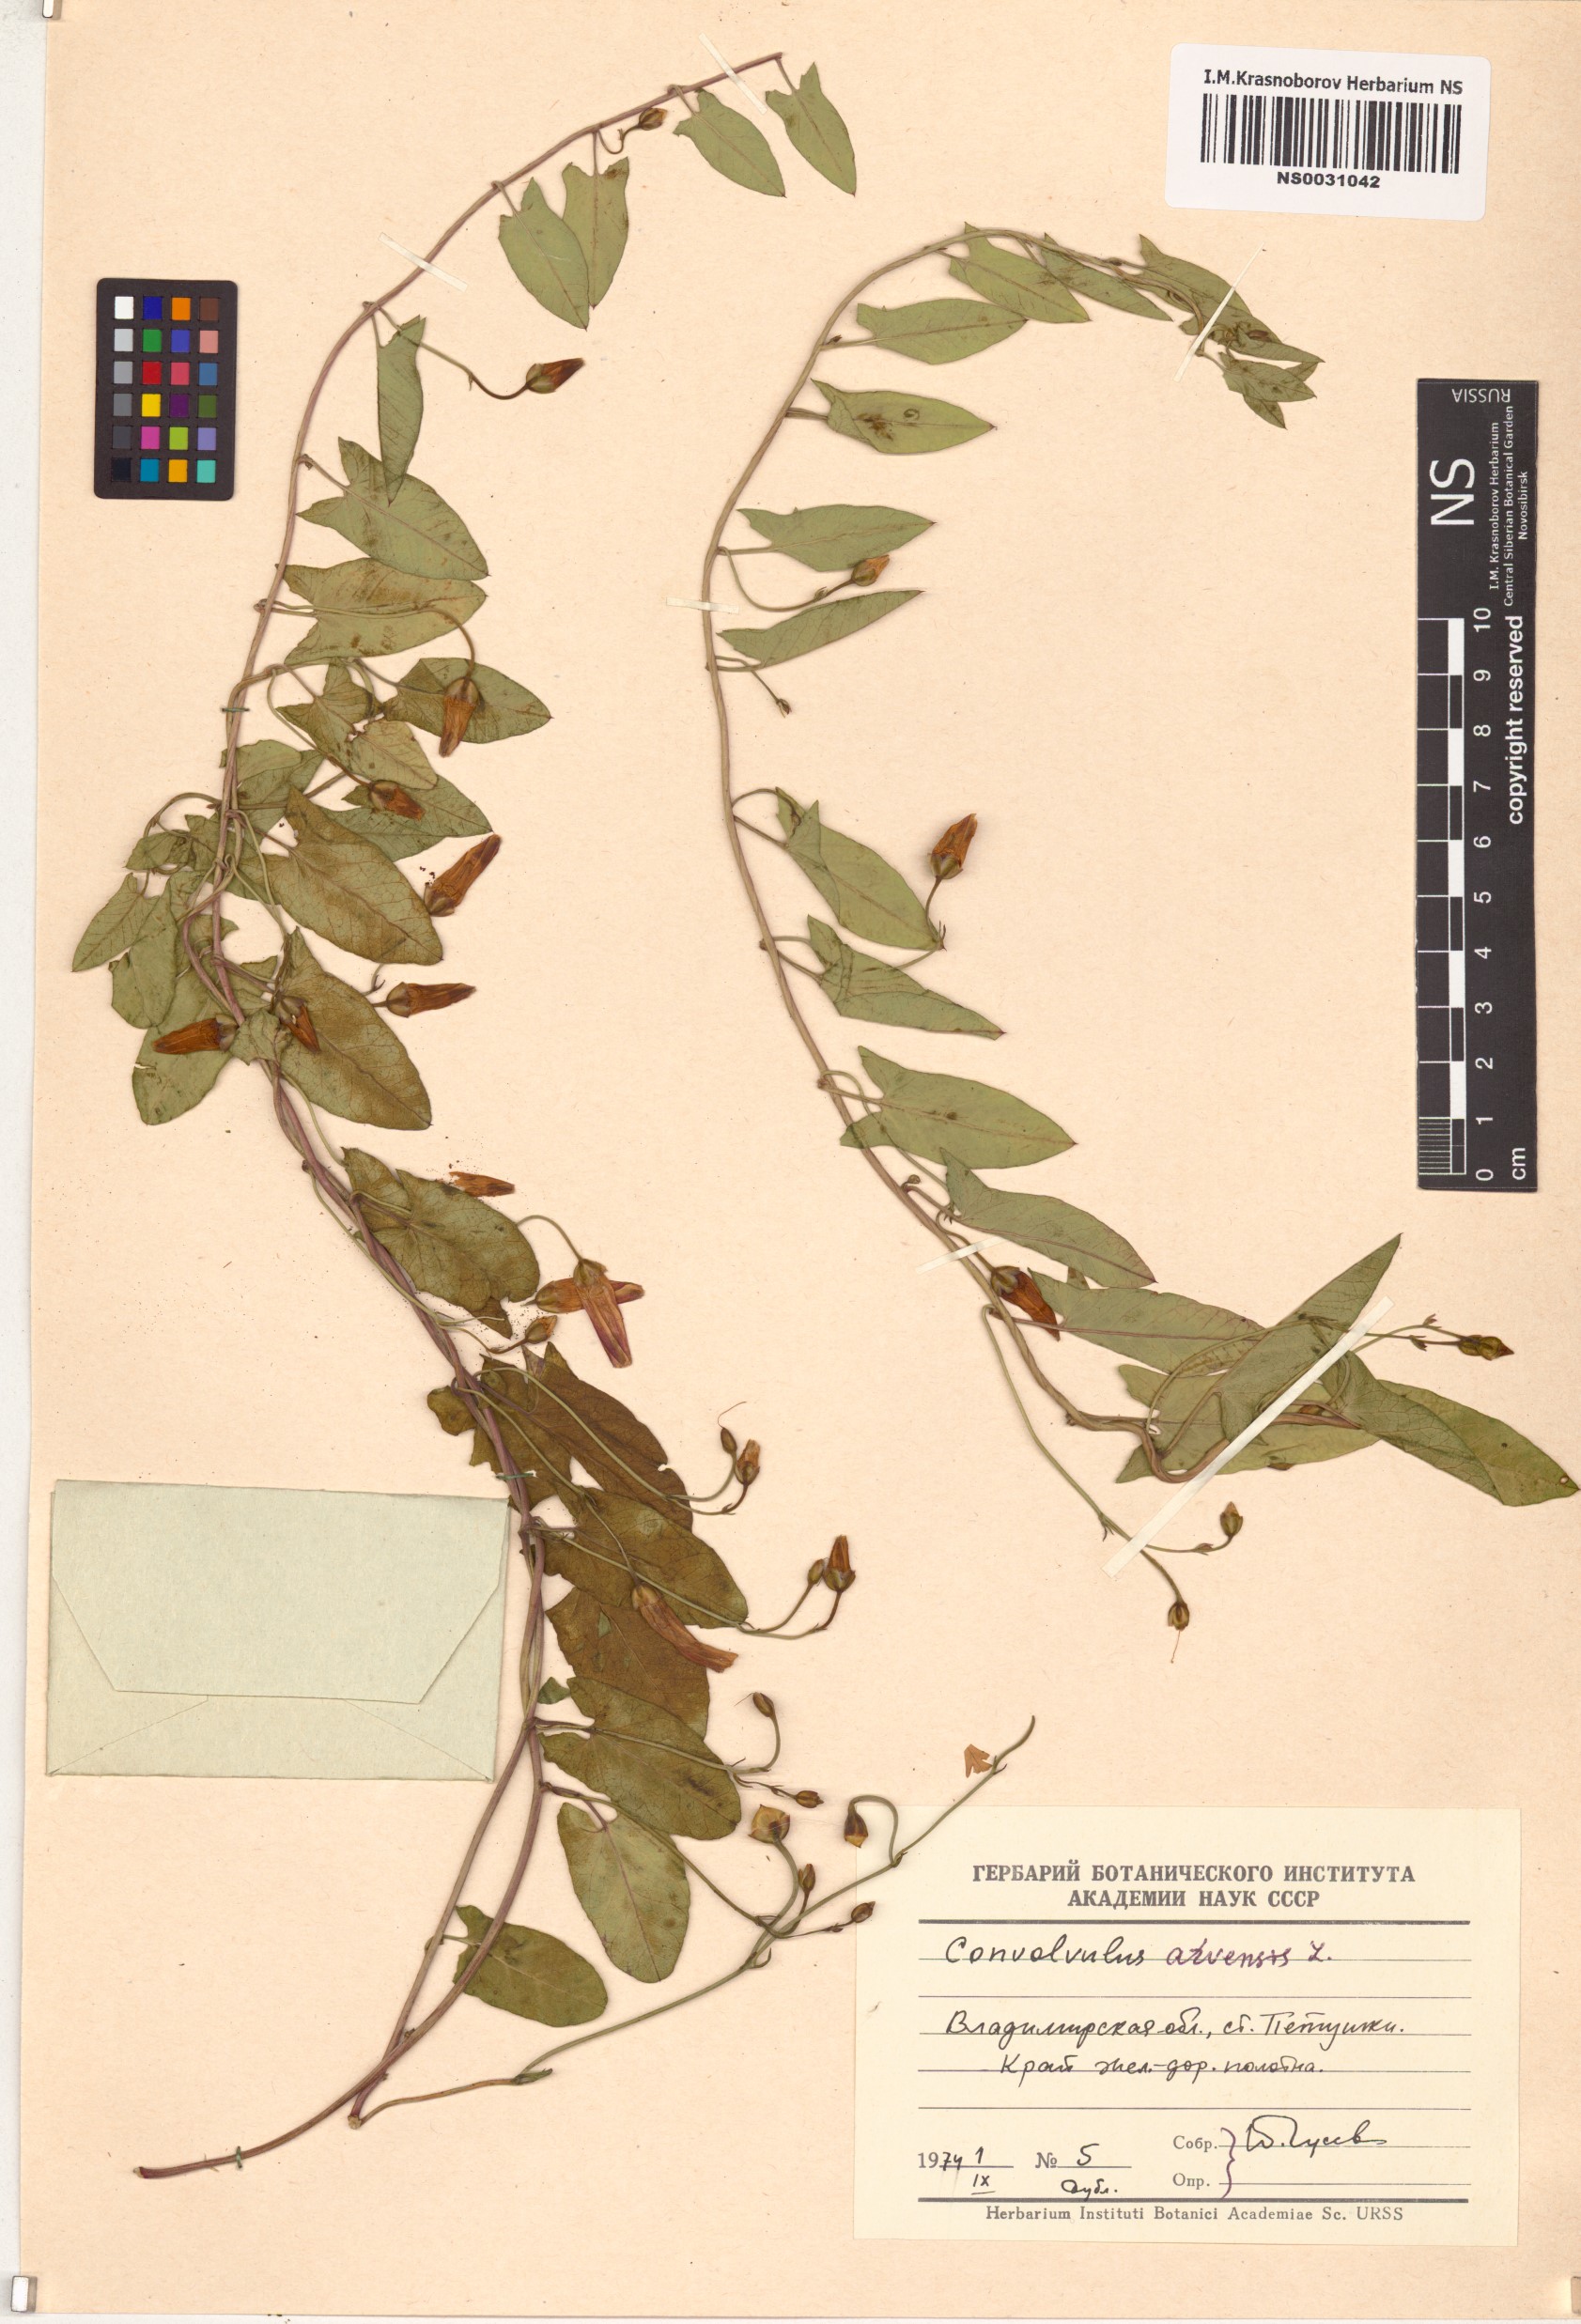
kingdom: Plantae
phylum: Tracheophyta
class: Magnoliopsida
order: Solanales
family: Convolvulaceae
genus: Convolvulus
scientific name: Convolvulus arvensis
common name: Field bindweed
